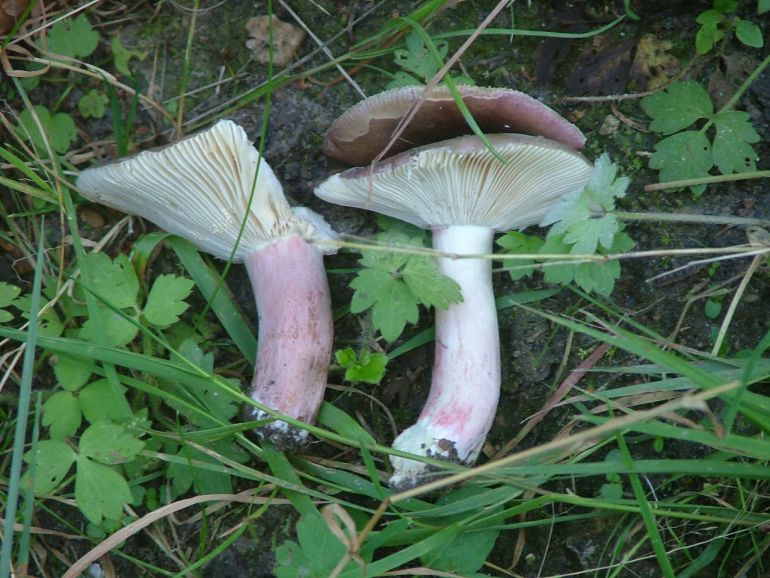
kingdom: Fungi
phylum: Basidiomycota
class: Agaricomycetes
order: Russulales
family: Russulaceae
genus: Russula
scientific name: Russula queletii
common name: Quélets skørhat
